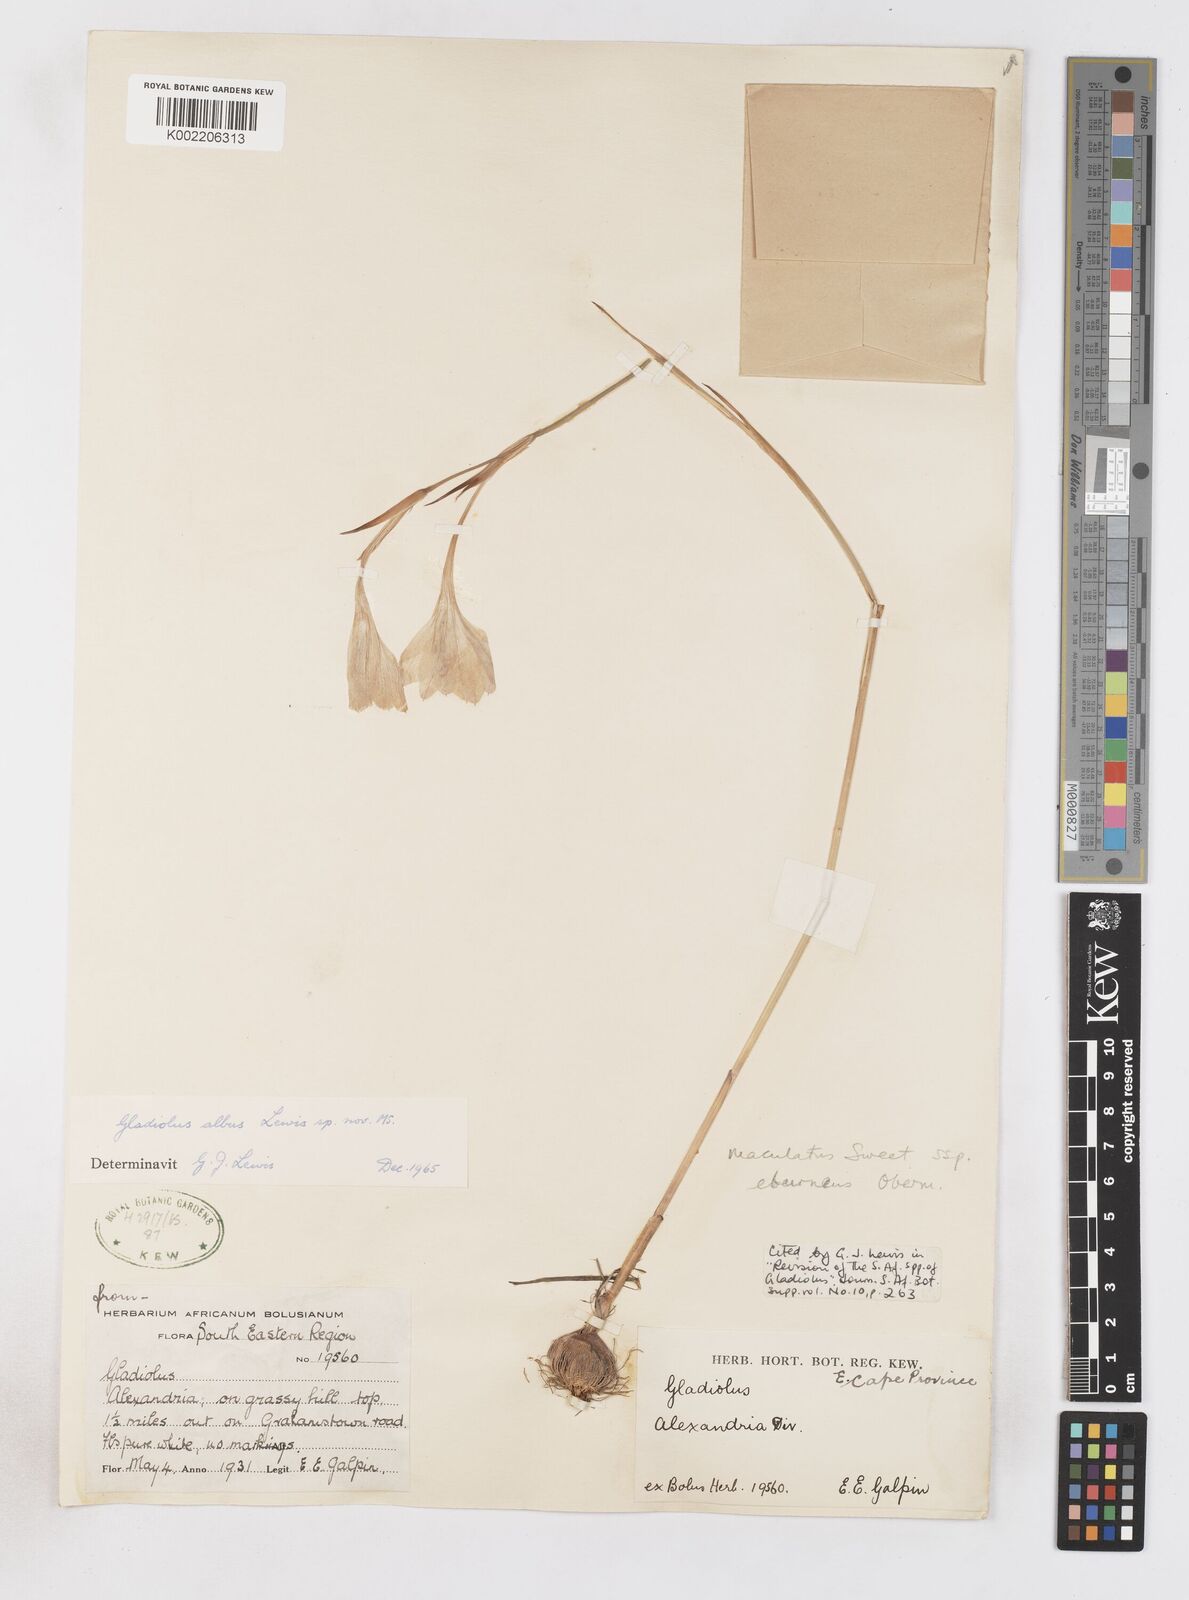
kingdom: Plantae
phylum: Tracheophyta
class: Liliopsida
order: Asparagales
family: Iridaceae
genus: Gladiolus
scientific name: Gladiolus albens
